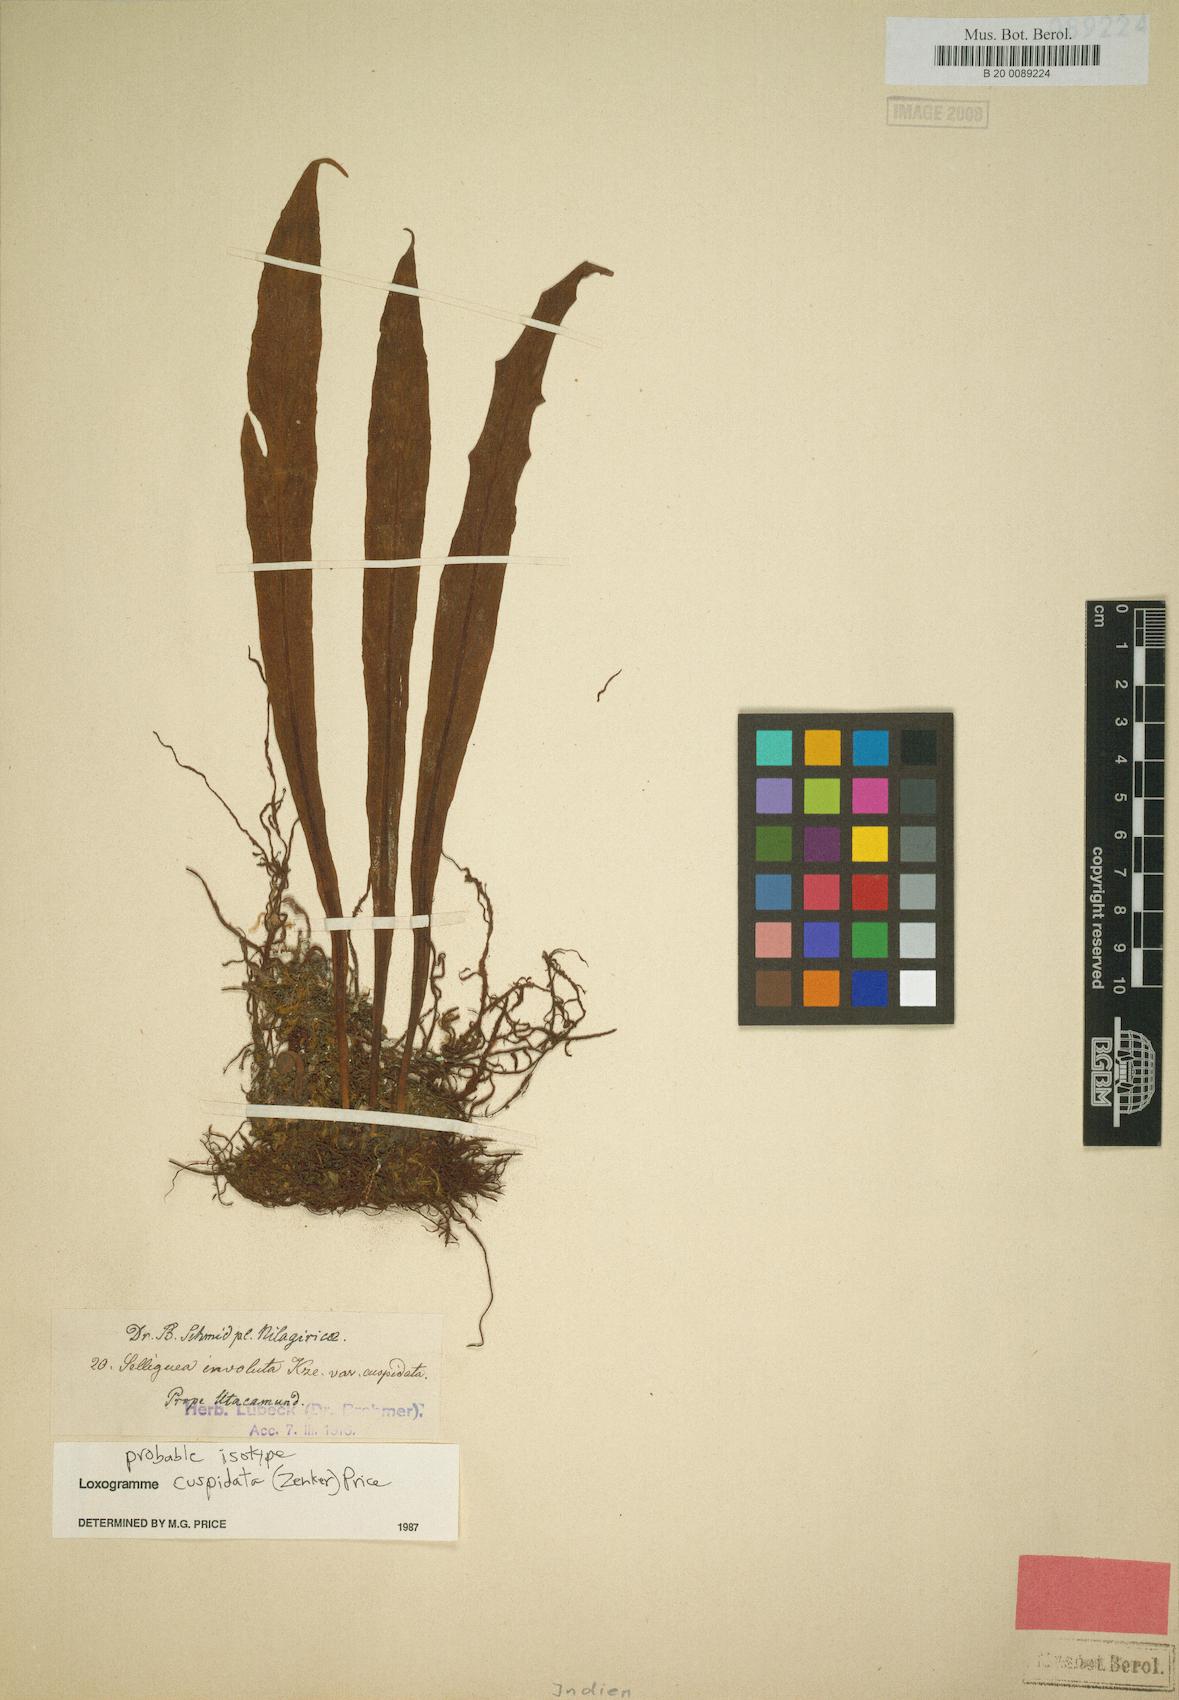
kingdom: Plantae
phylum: Tracheophyta
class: Polypodiopsida
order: Polypodiales
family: Polypodiaceae
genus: Loxogramme
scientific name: Loxogramme cuspidata
